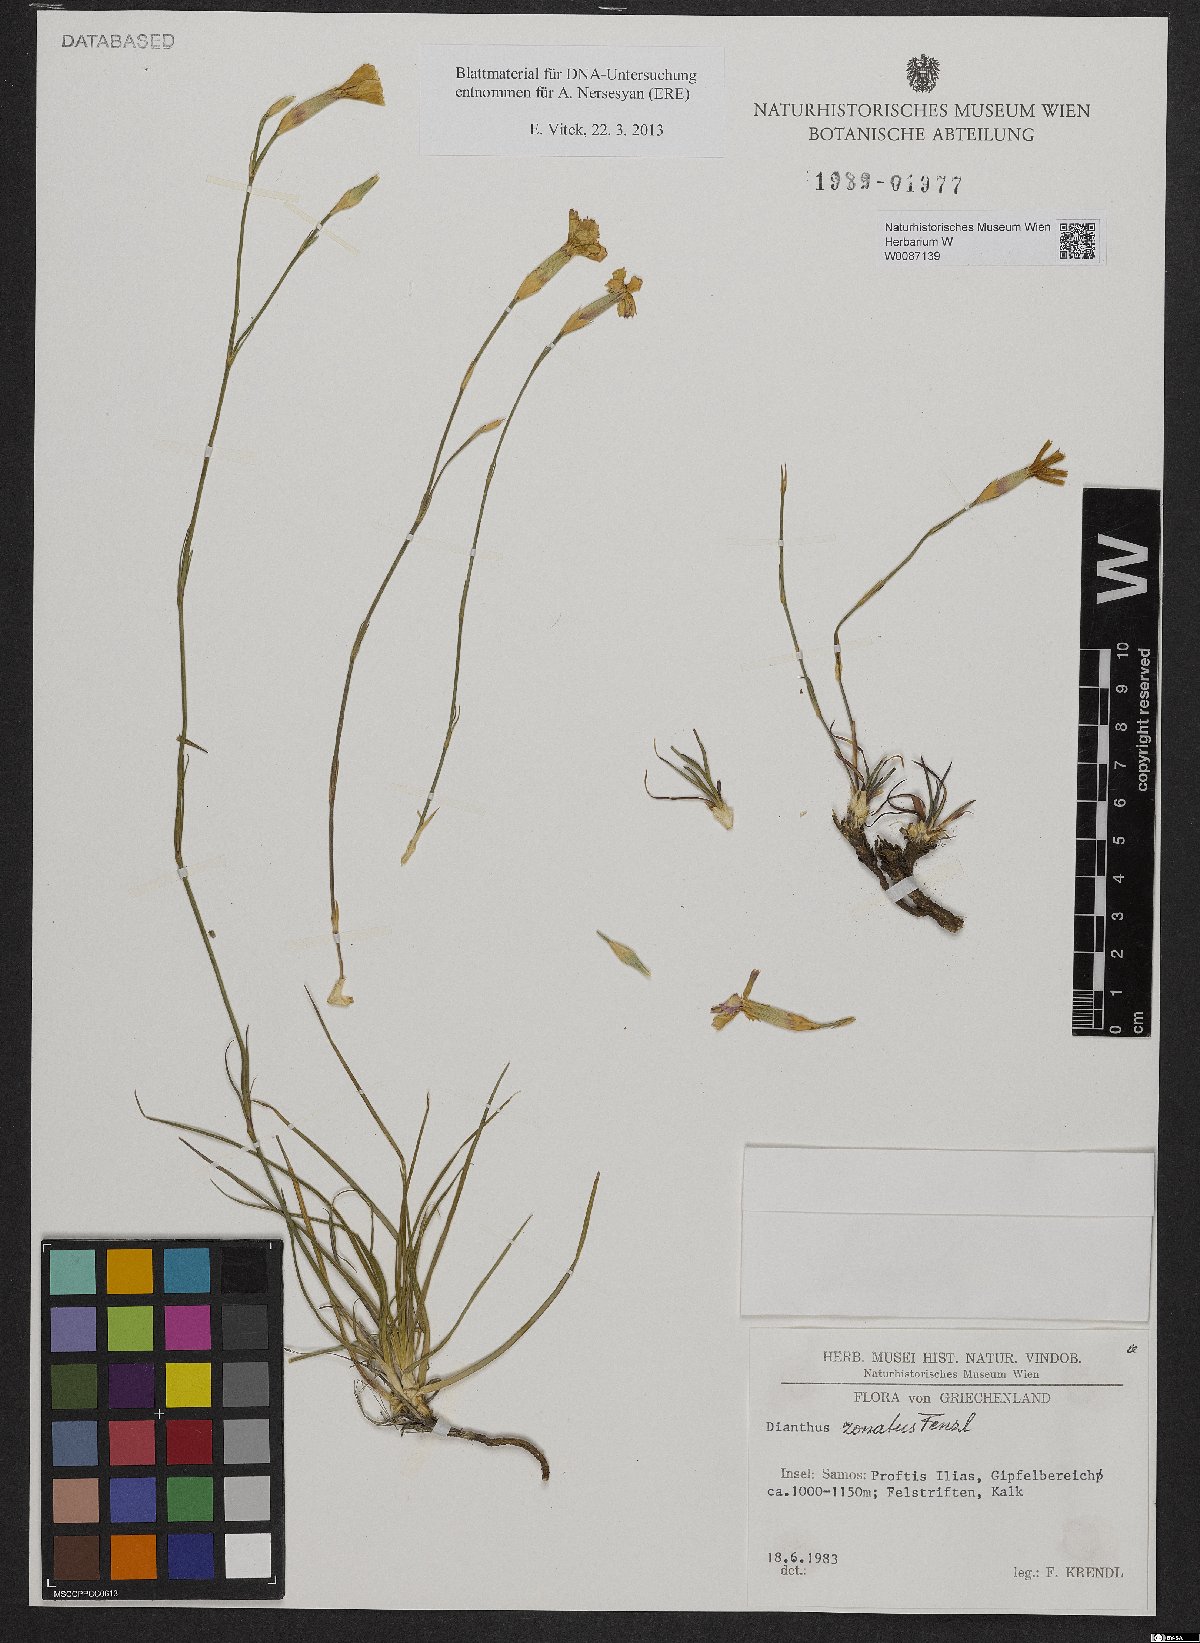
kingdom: Plantae
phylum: Tracheophyta
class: Magnoliopsida
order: Caryophyllales
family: Caryophyllaceae
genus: Dianthus
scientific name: Dianthus zonatus
